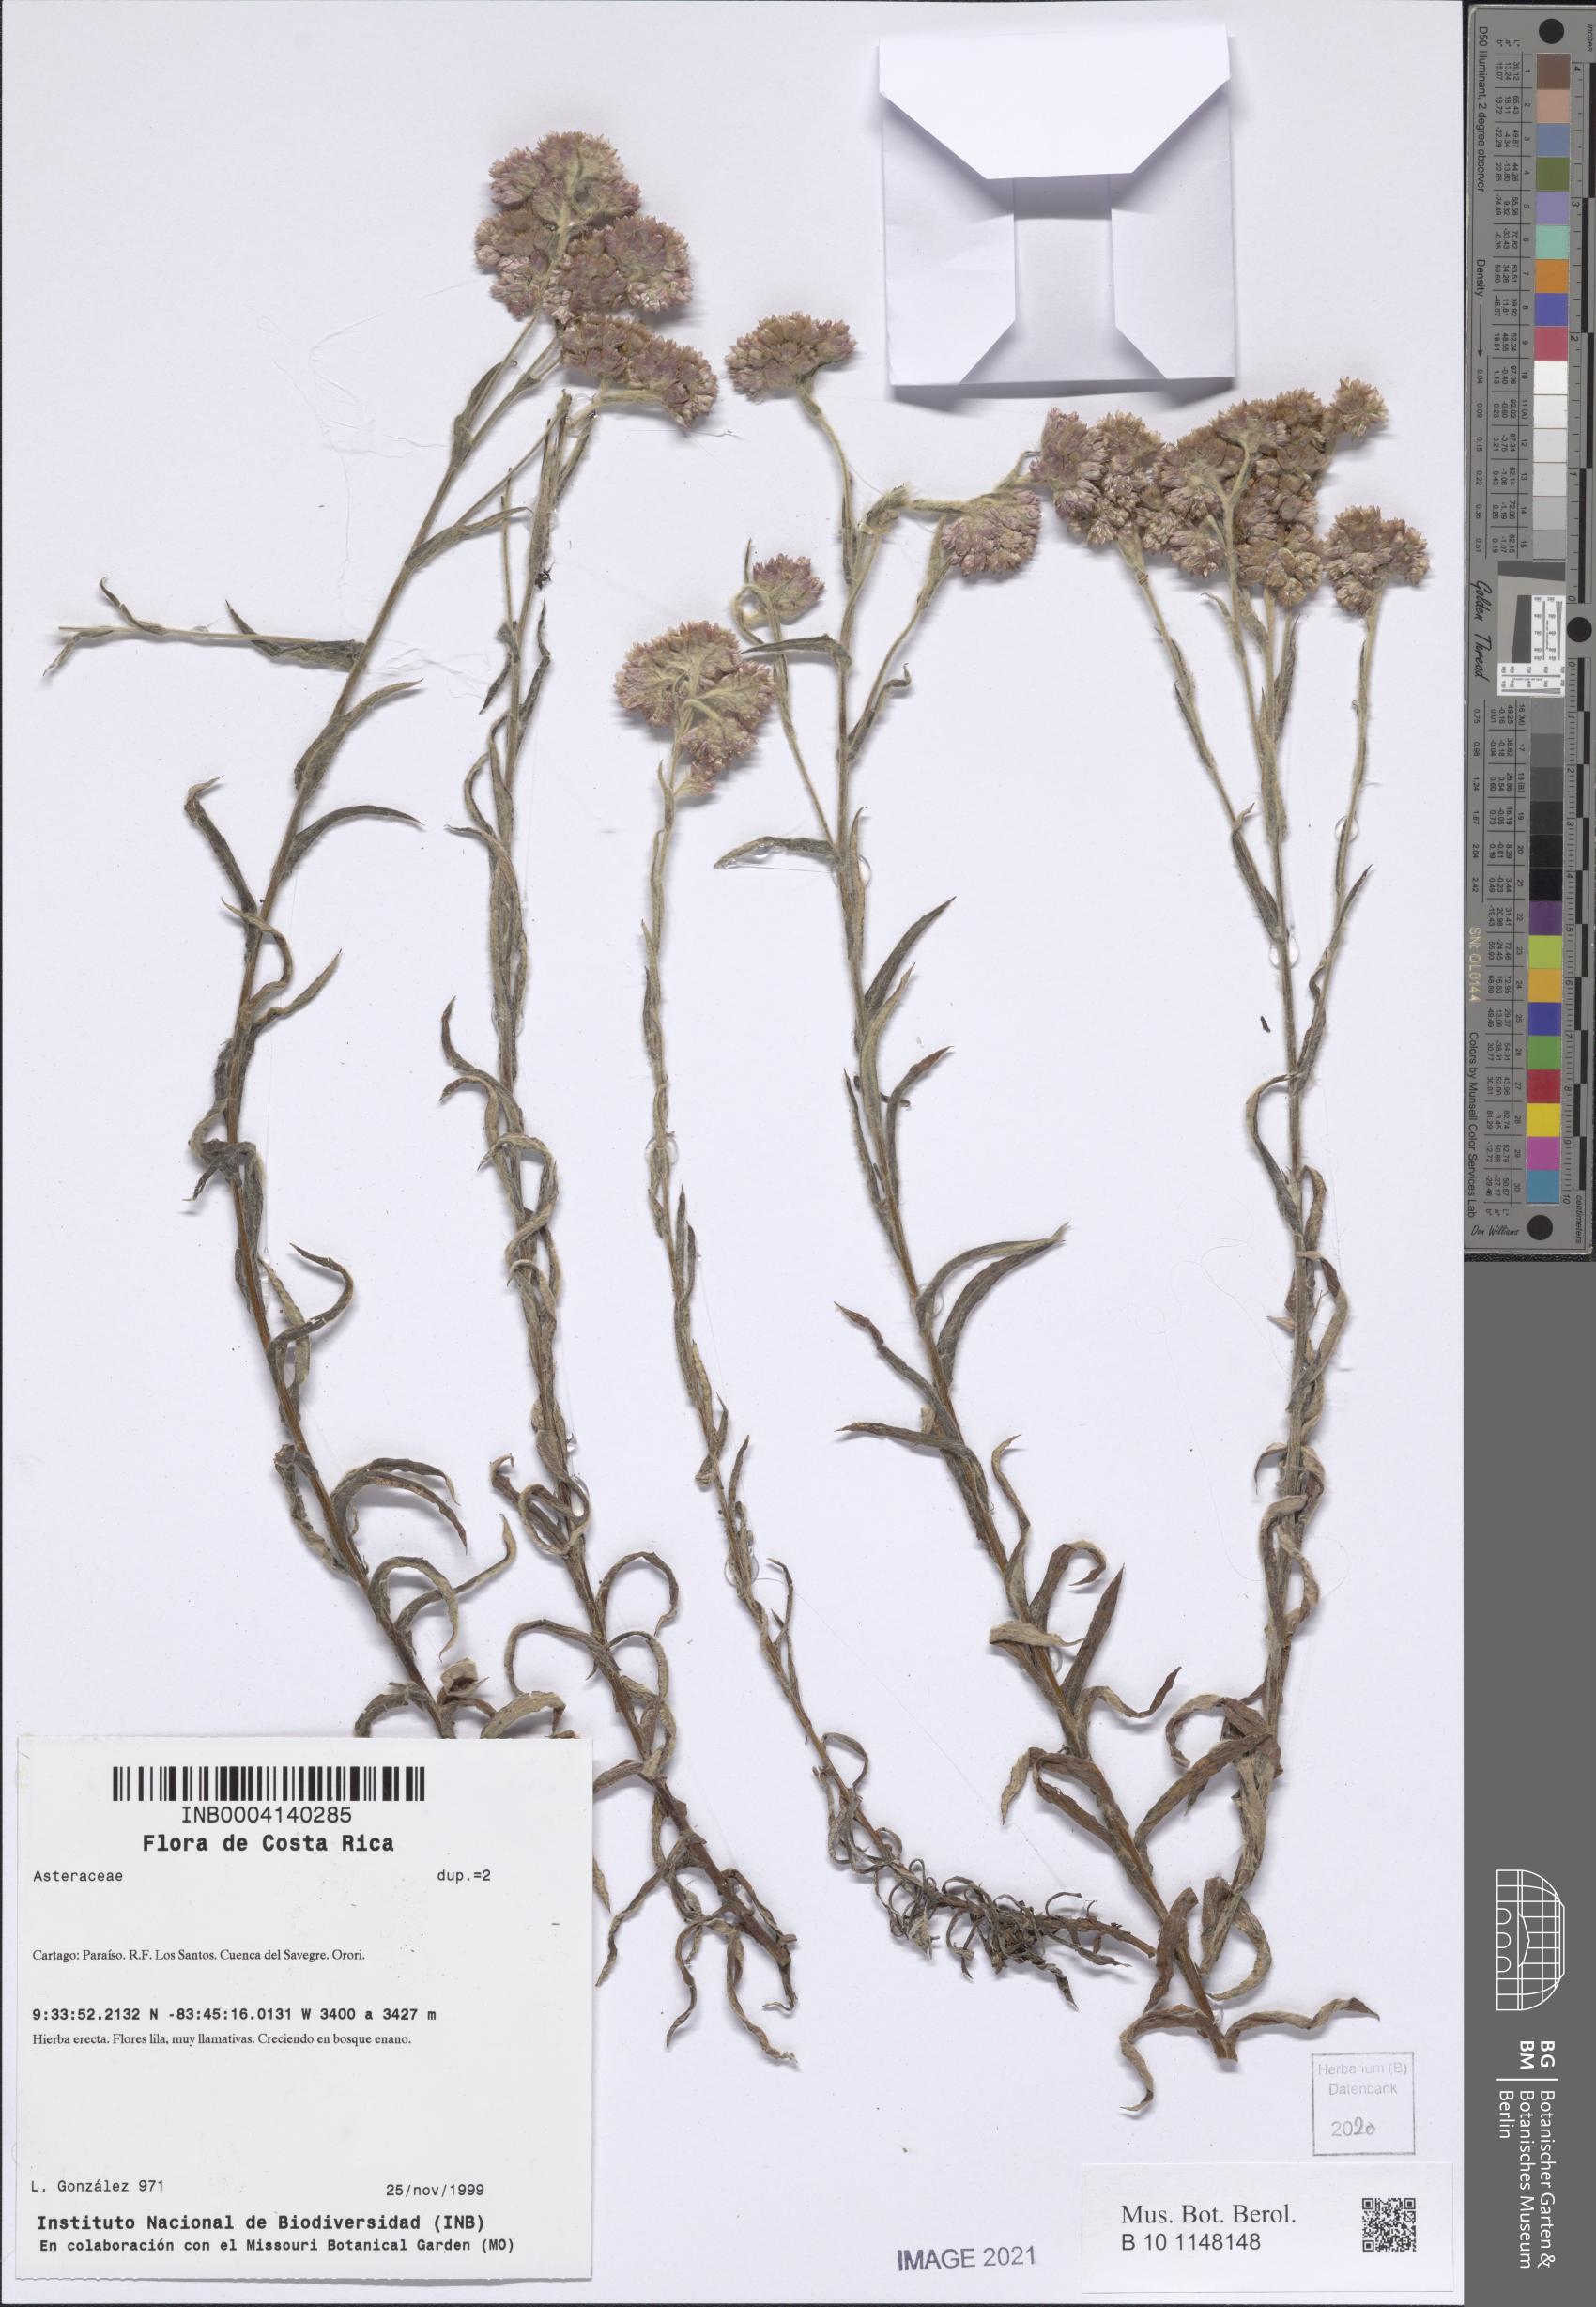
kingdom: Plantae
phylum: Tracheophyta
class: Magnoliopsida
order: Asterales
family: Asteraceae
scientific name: Asteraceae
